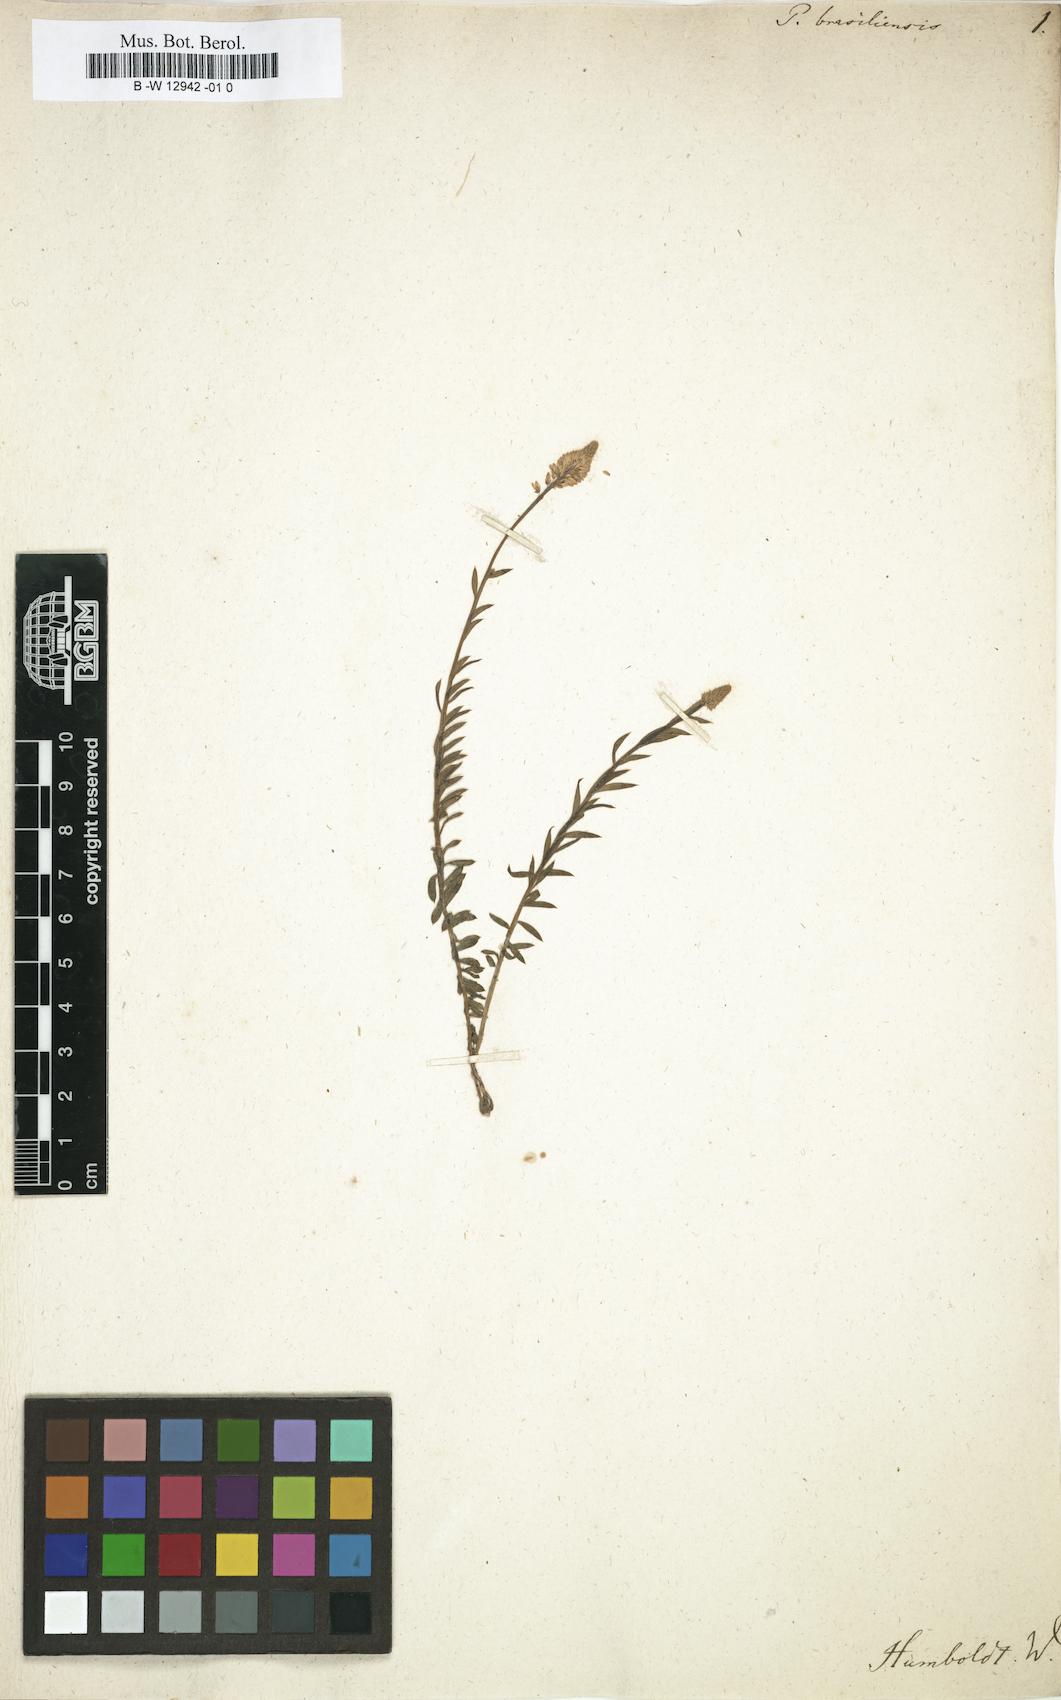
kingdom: Plantae
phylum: Tracheophyta
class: Magnoliopsida
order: Fabales
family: Polygalaceae
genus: Polygala
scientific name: Polygala brasiliensis
